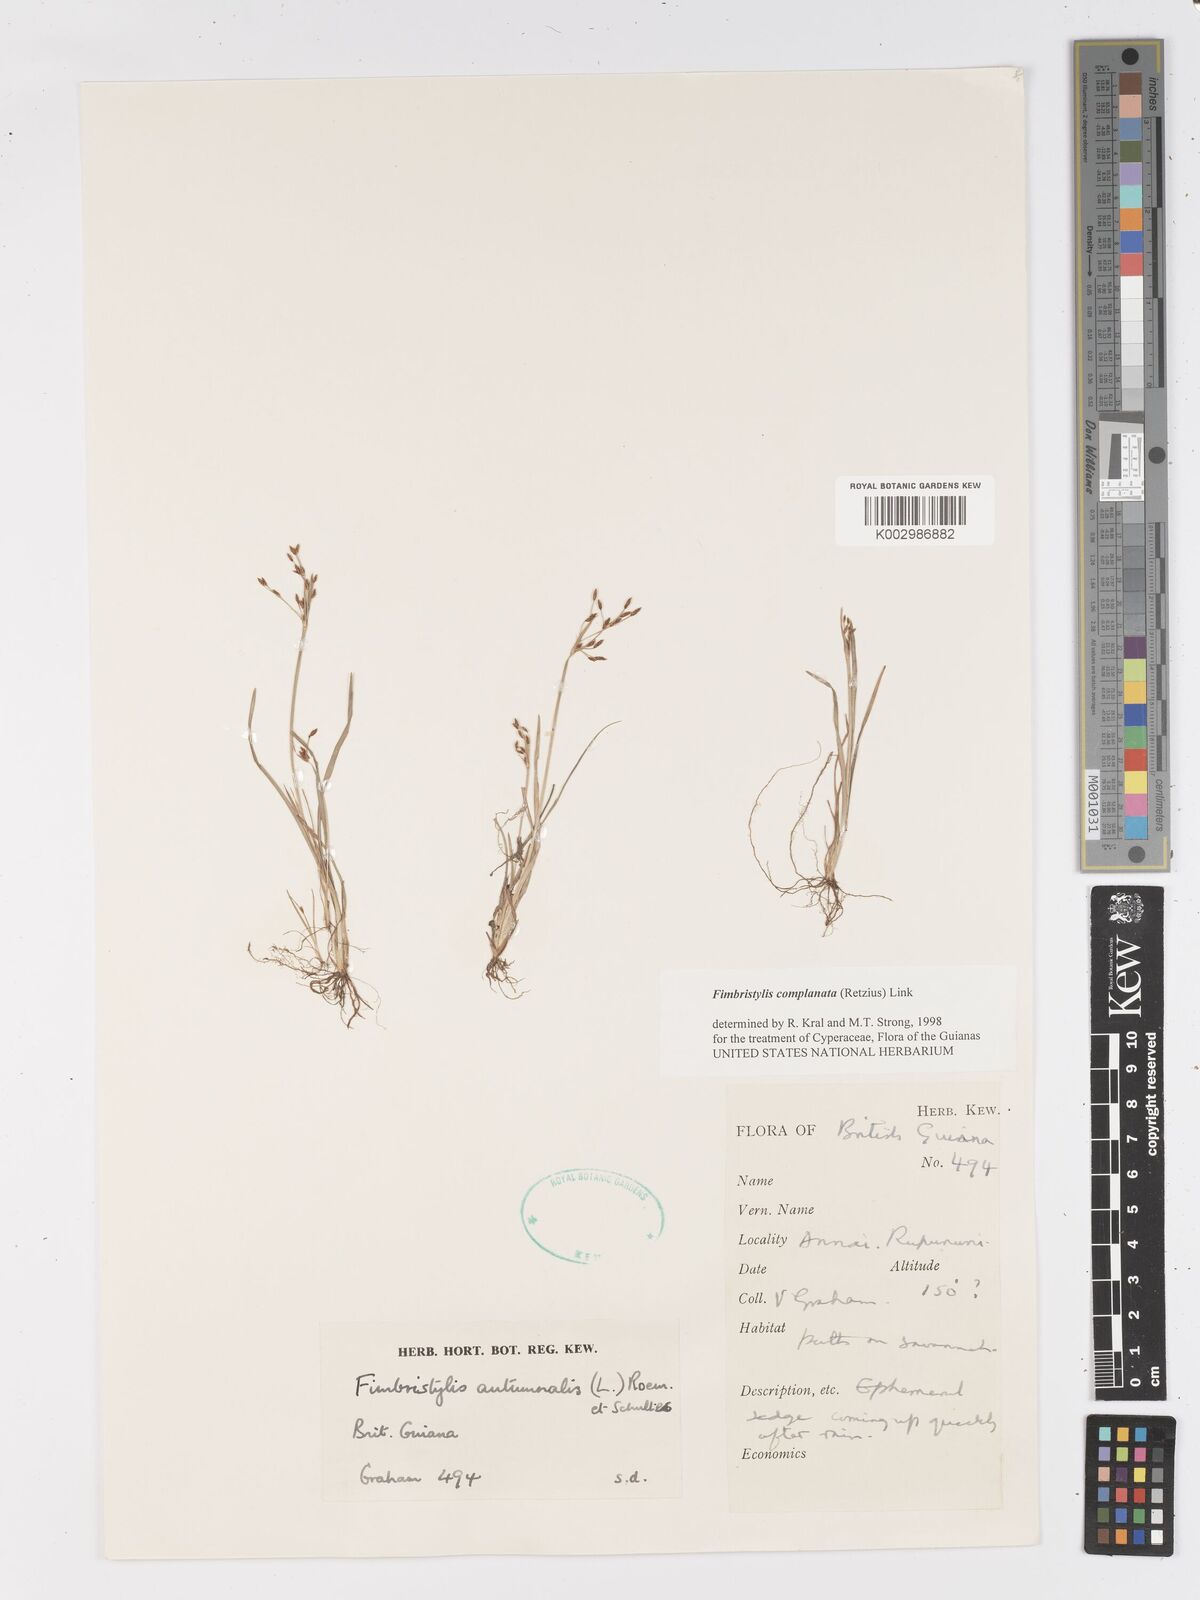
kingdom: Plantae
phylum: Tracheophyta
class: Liliopsida
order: Poales
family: Cyperaceae
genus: Fimbristylis
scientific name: Fimbristylis complanata
